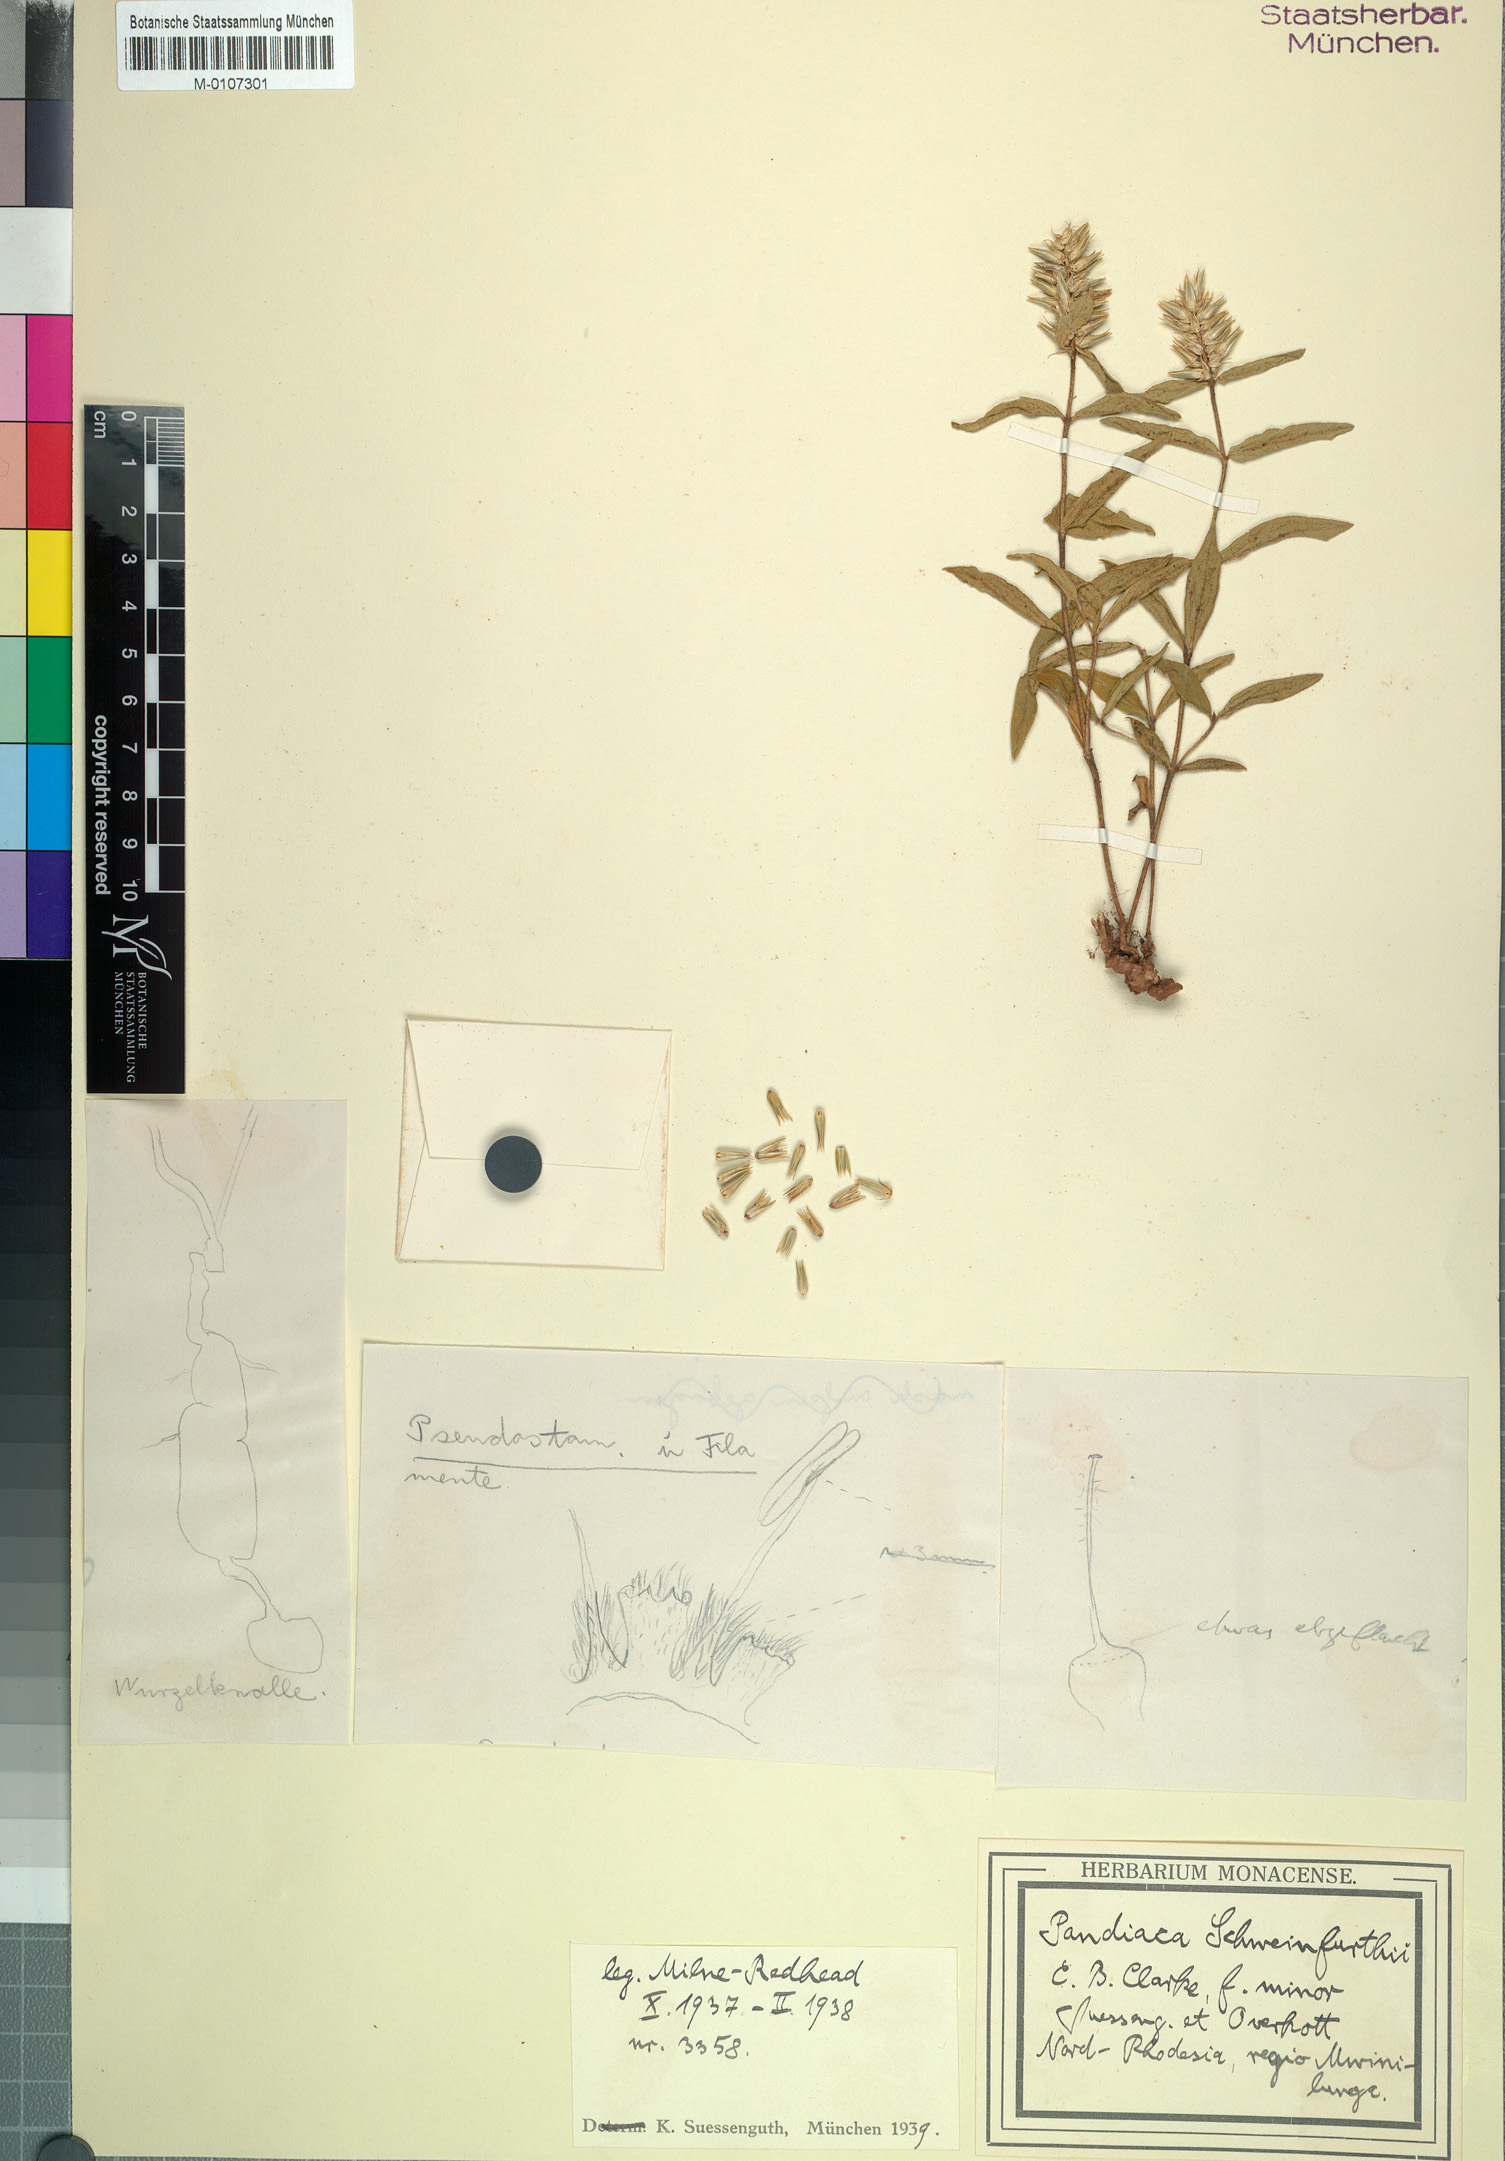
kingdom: Plantae
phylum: Tracheophyta
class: Magnoliopsida
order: Caryophyllales
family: Amaranthaceae
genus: Pandiaka
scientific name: Pandiaka welwitschii
